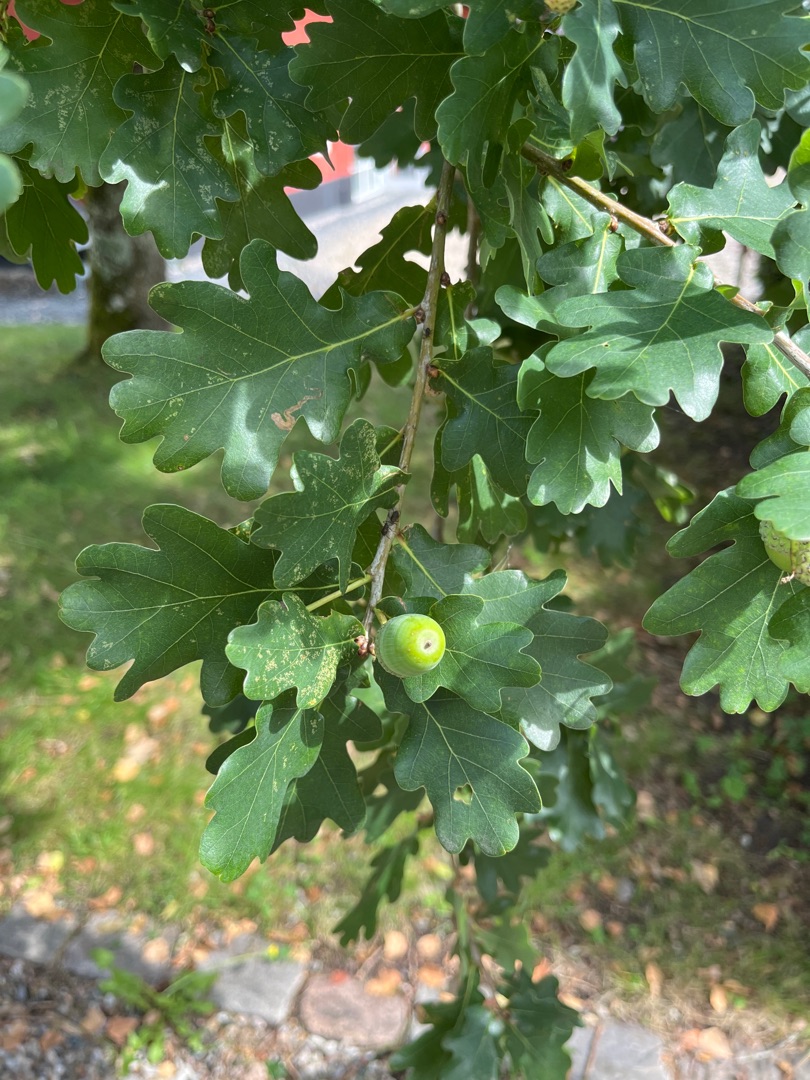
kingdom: Plantae
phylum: Tracheophyta
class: Magnoliopsida
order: Fagales
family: Fagaceae
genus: Quercus
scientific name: Quercus robur
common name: Stilk-eg/almindelig eg
